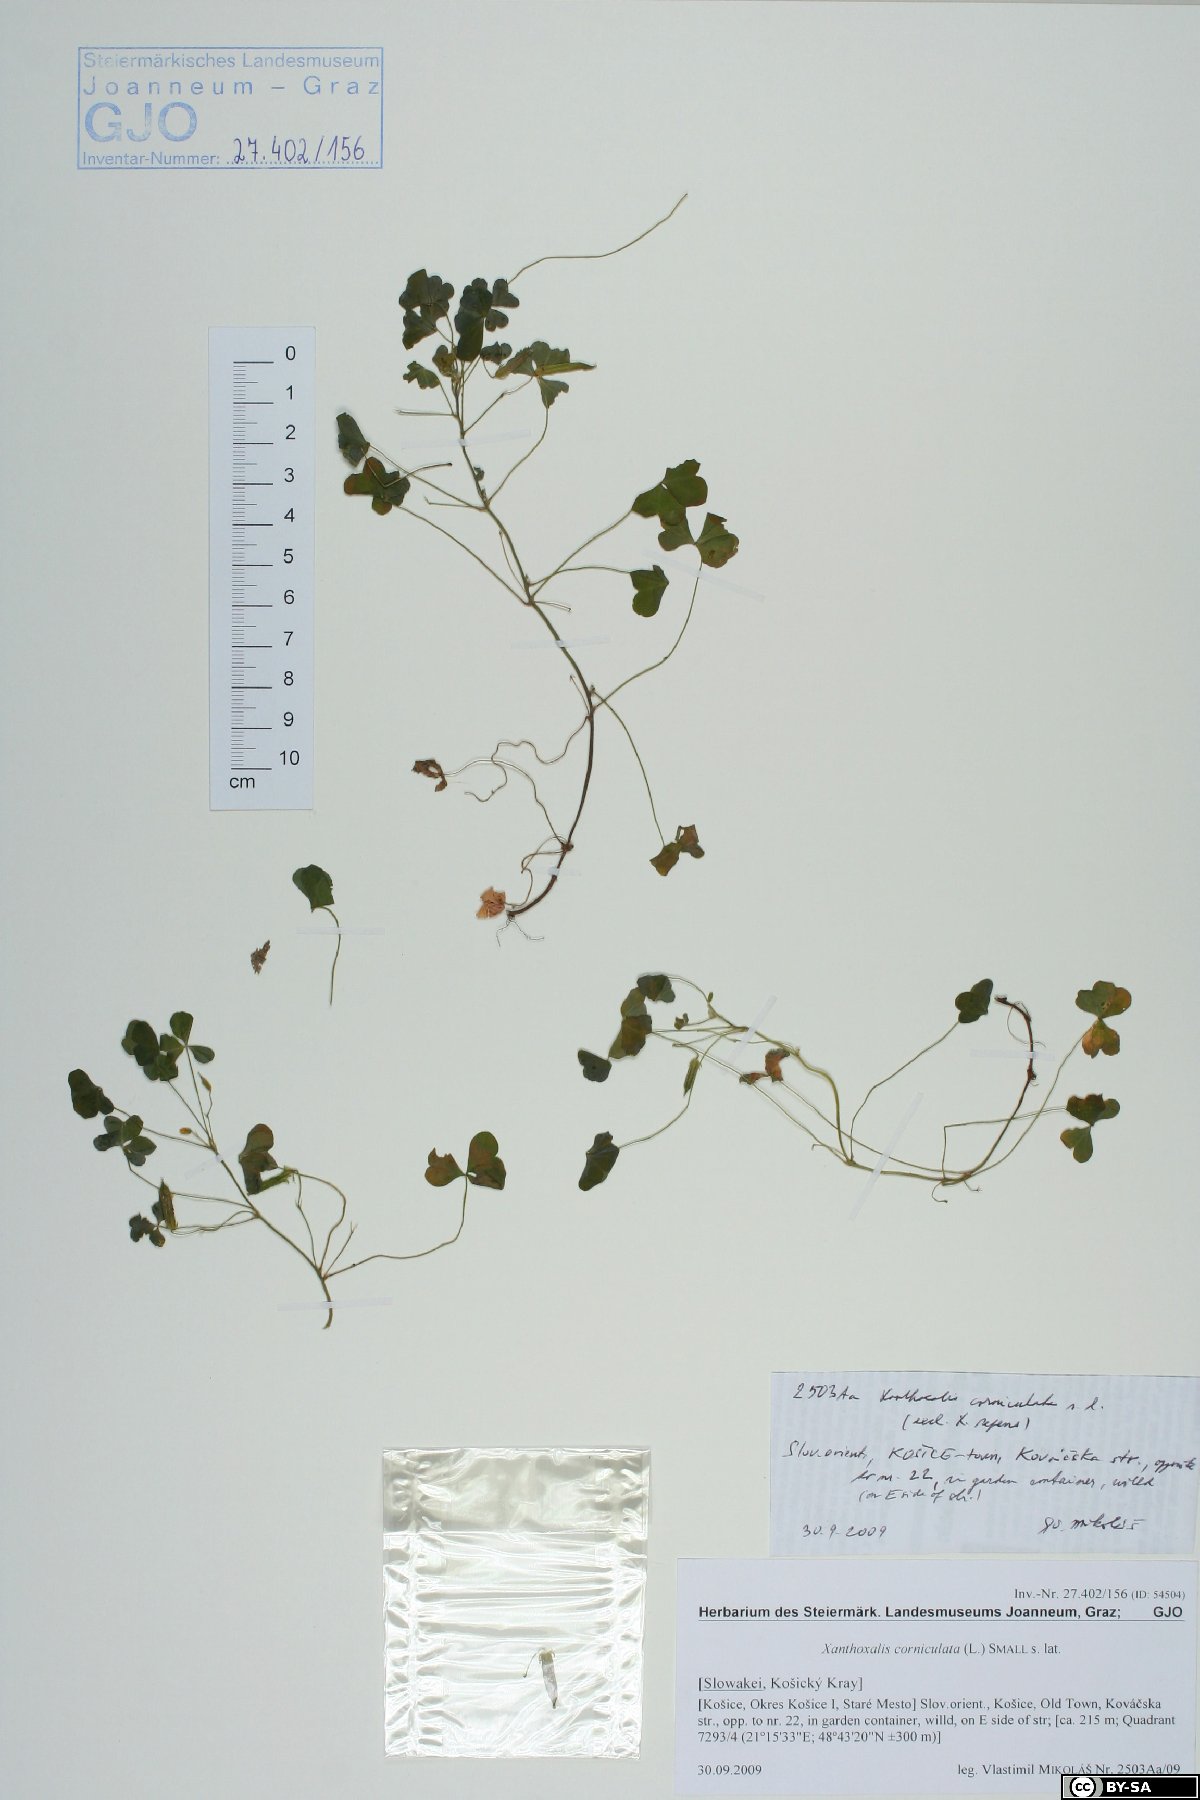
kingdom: Plantae
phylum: Tracheophyta
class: Magnoliopsida
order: Oxalidales
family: Oxalidaceae
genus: Oxalis
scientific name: Oxalis corniculata
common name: Procumbent yellow-sorrel
